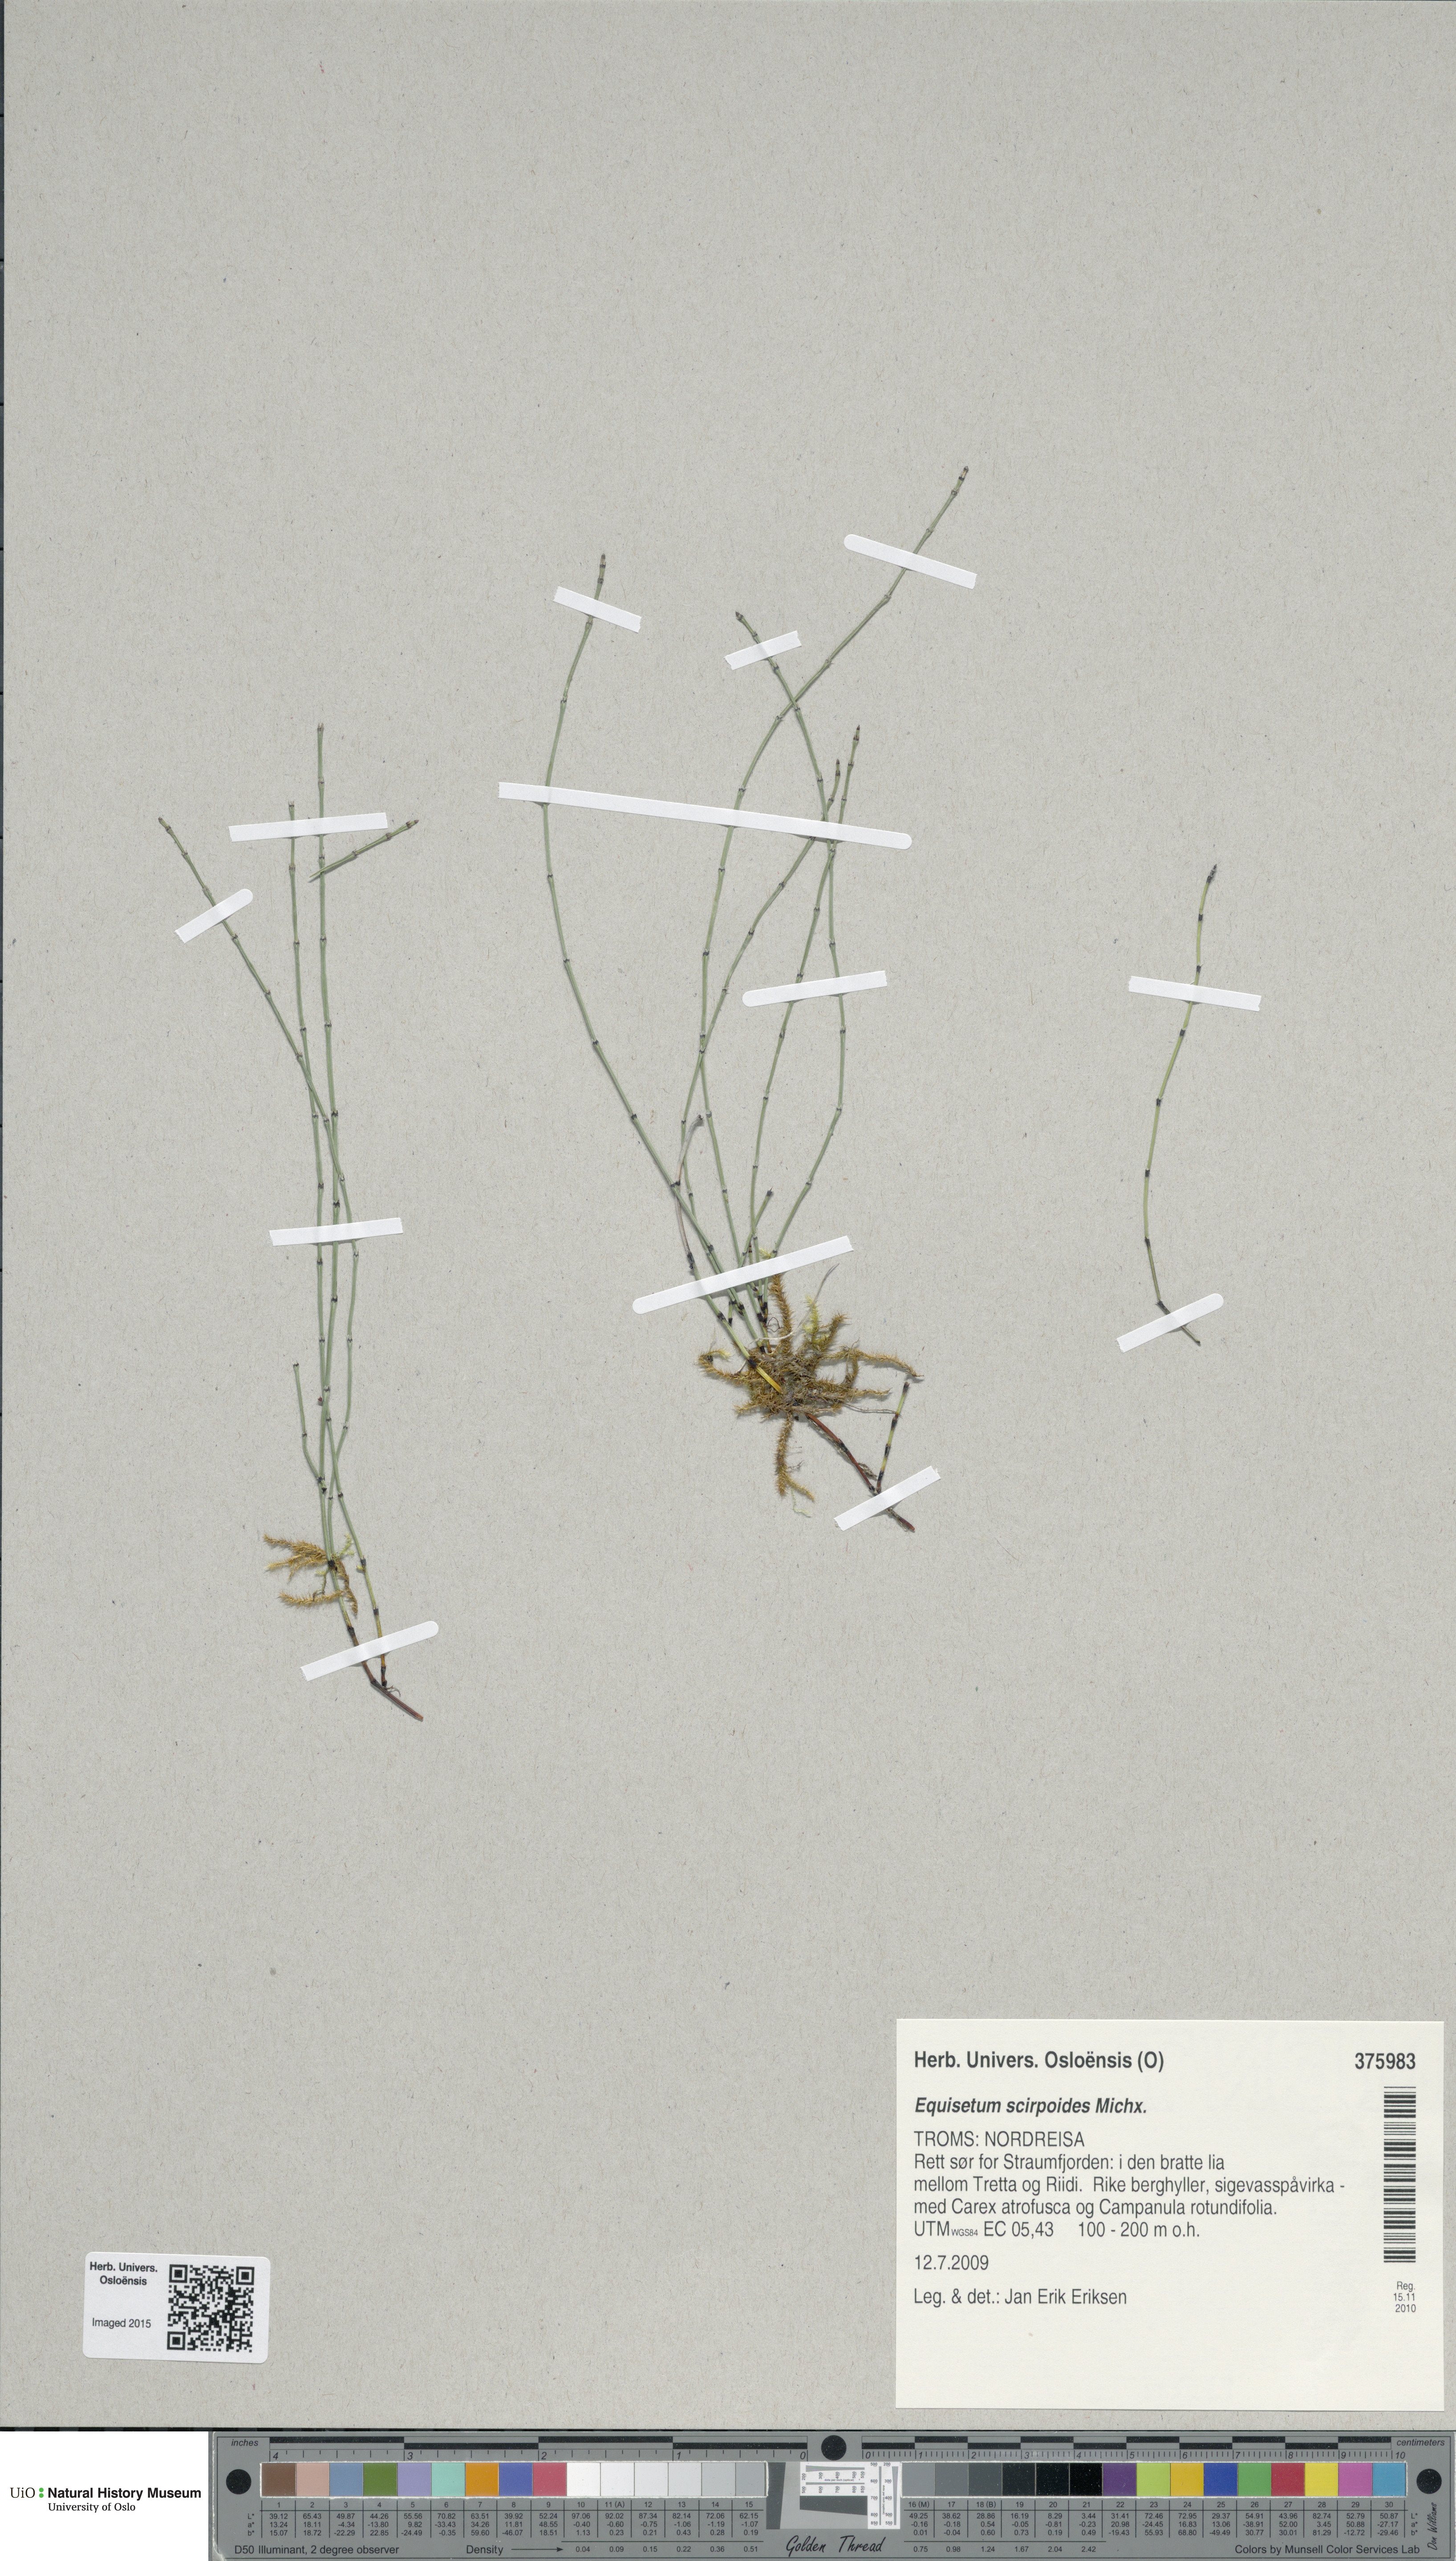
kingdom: Plantae
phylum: Tracheophyta
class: Polypodiopsida
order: Equisetales
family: Equisetaceae
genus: Equisetum
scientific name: Equisetum scirpoides
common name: Delicate horsetail
